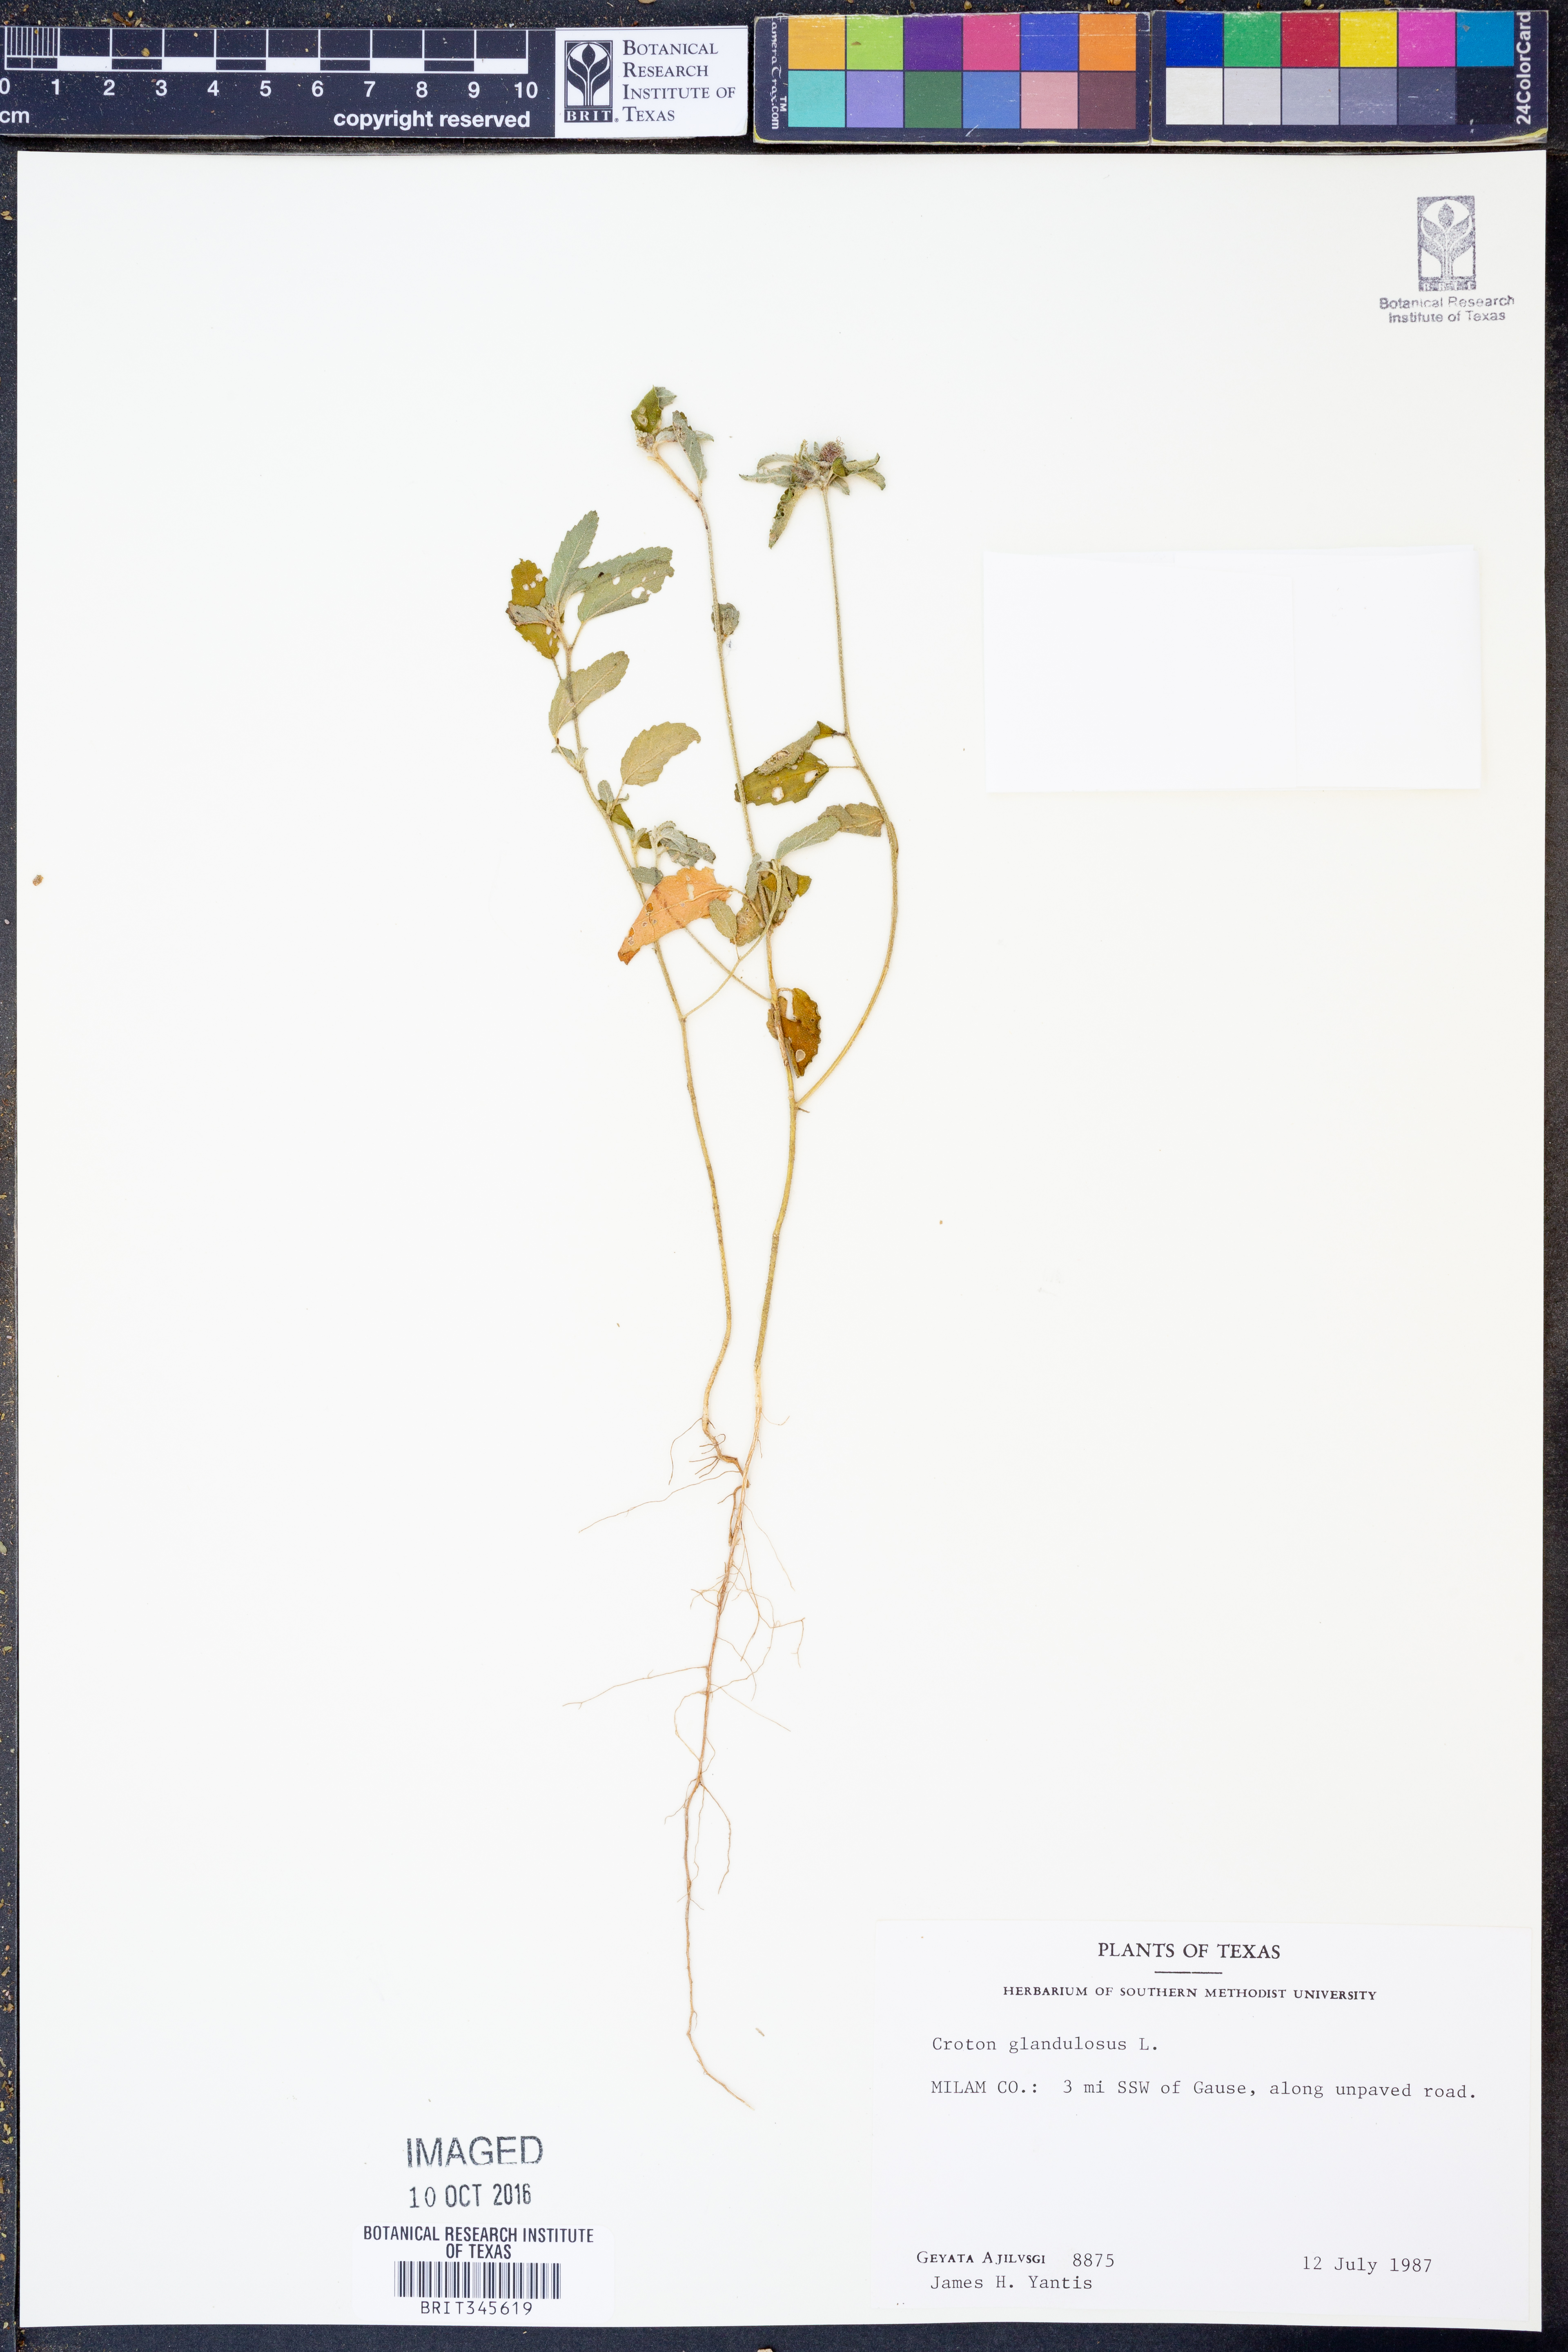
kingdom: Plantae
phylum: Tracheophyta
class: Magnoliopsida
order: Malpighiales
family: Euphorbiaceae
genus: Croton
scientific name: Croton glandulosus
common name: Tropic croton
